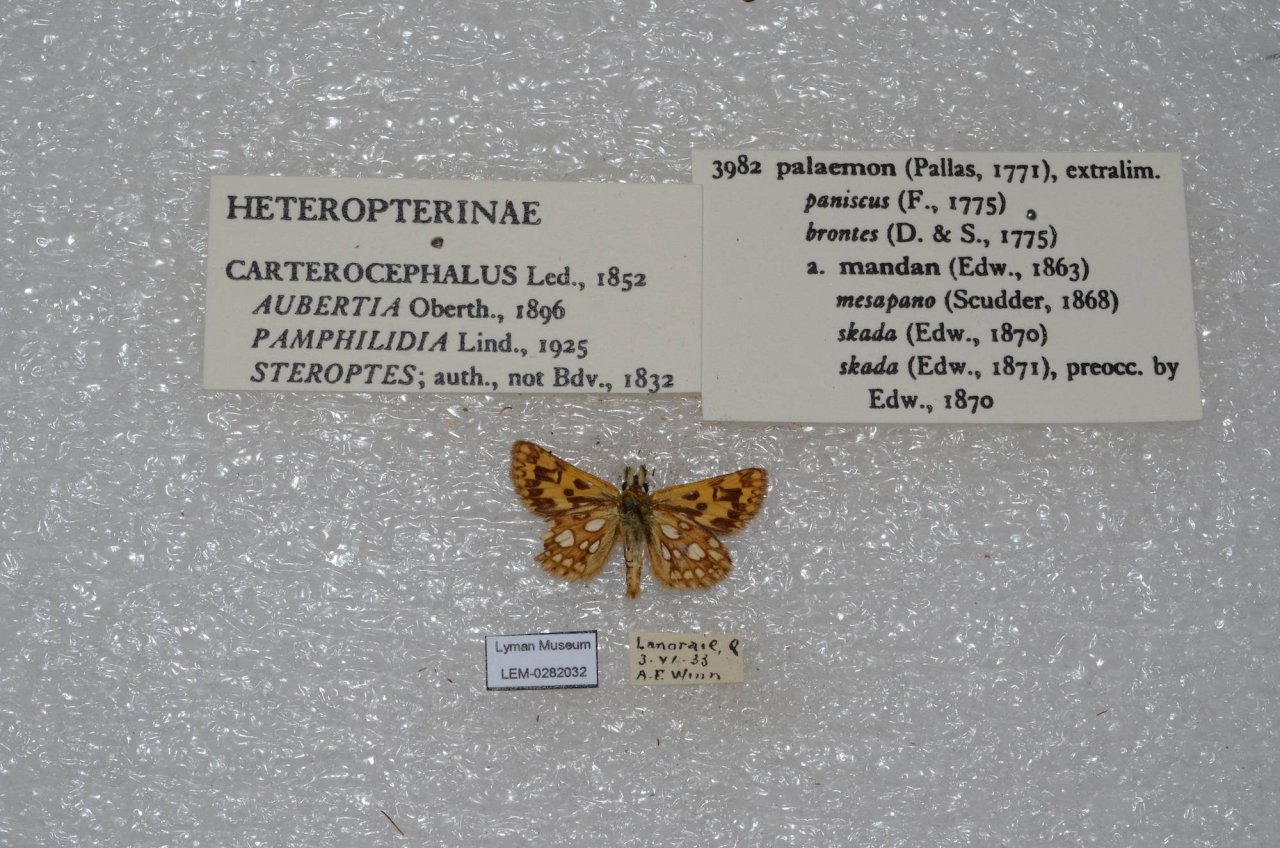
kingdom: Animalia
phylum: Arthropoda
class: Insecta
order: Lepidoptera
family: Hesperiidae
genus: Carterocephalus
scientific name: Carterocephalus palaemon
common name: Chequered Skipper
